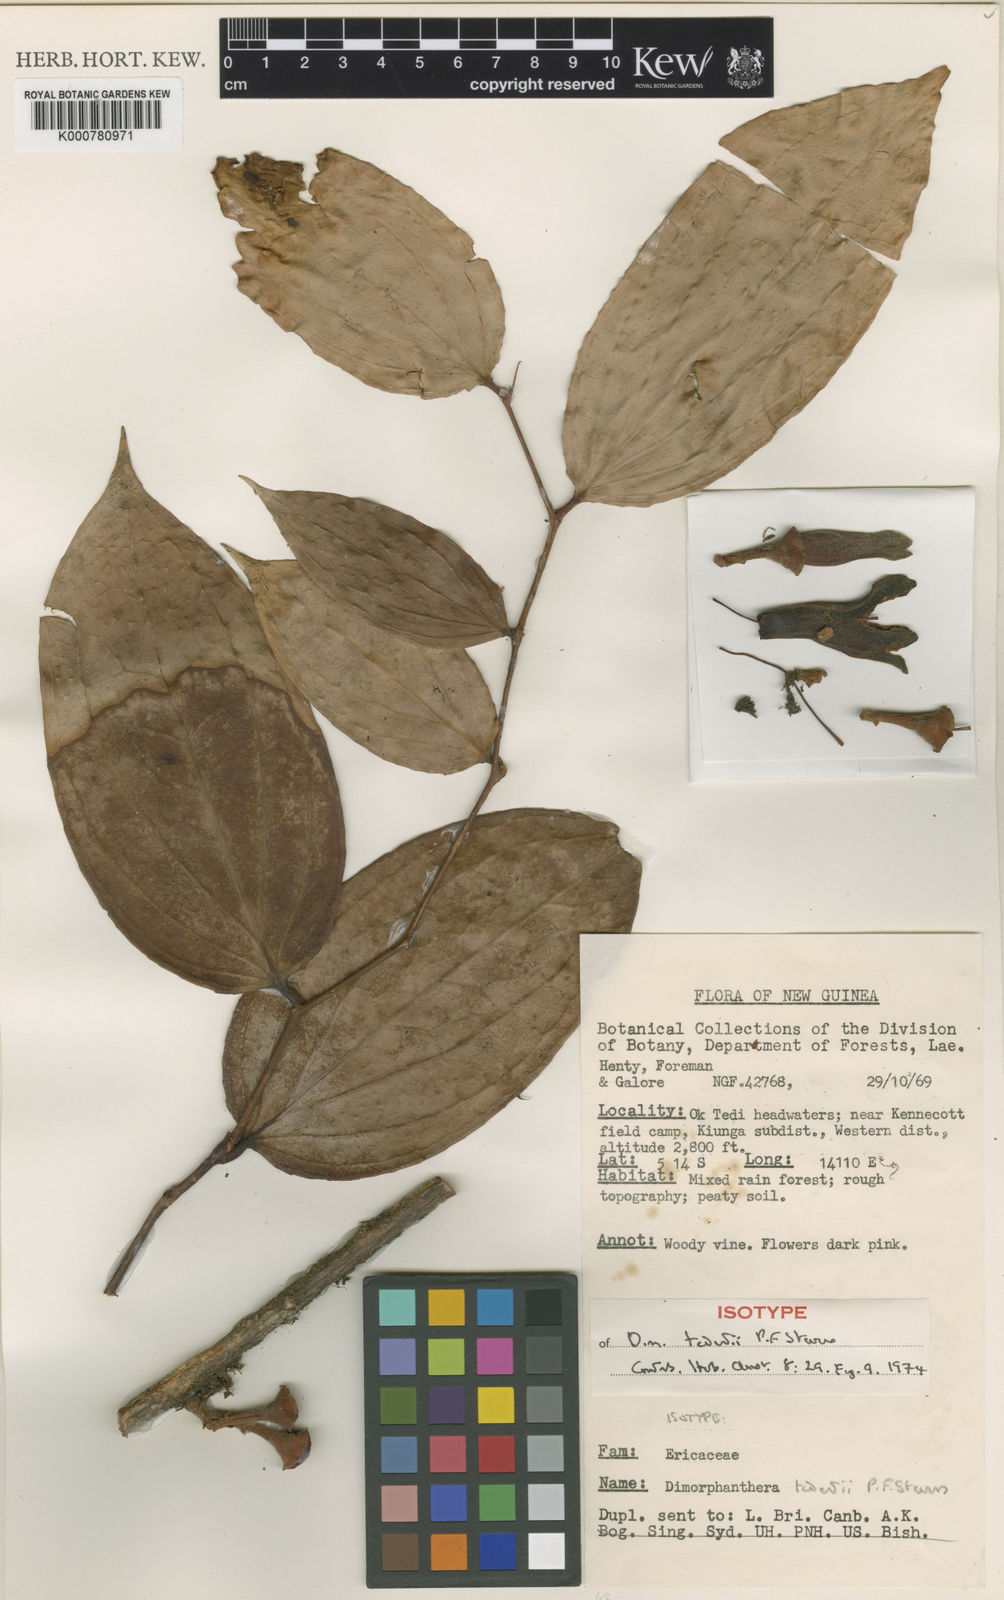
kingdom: Plantae
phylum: Tracheophyta
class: Magnoliopsida
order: Ericales
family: Ericaceae
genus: Dimorphanthera
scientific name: Dimorphanthera tedentii
